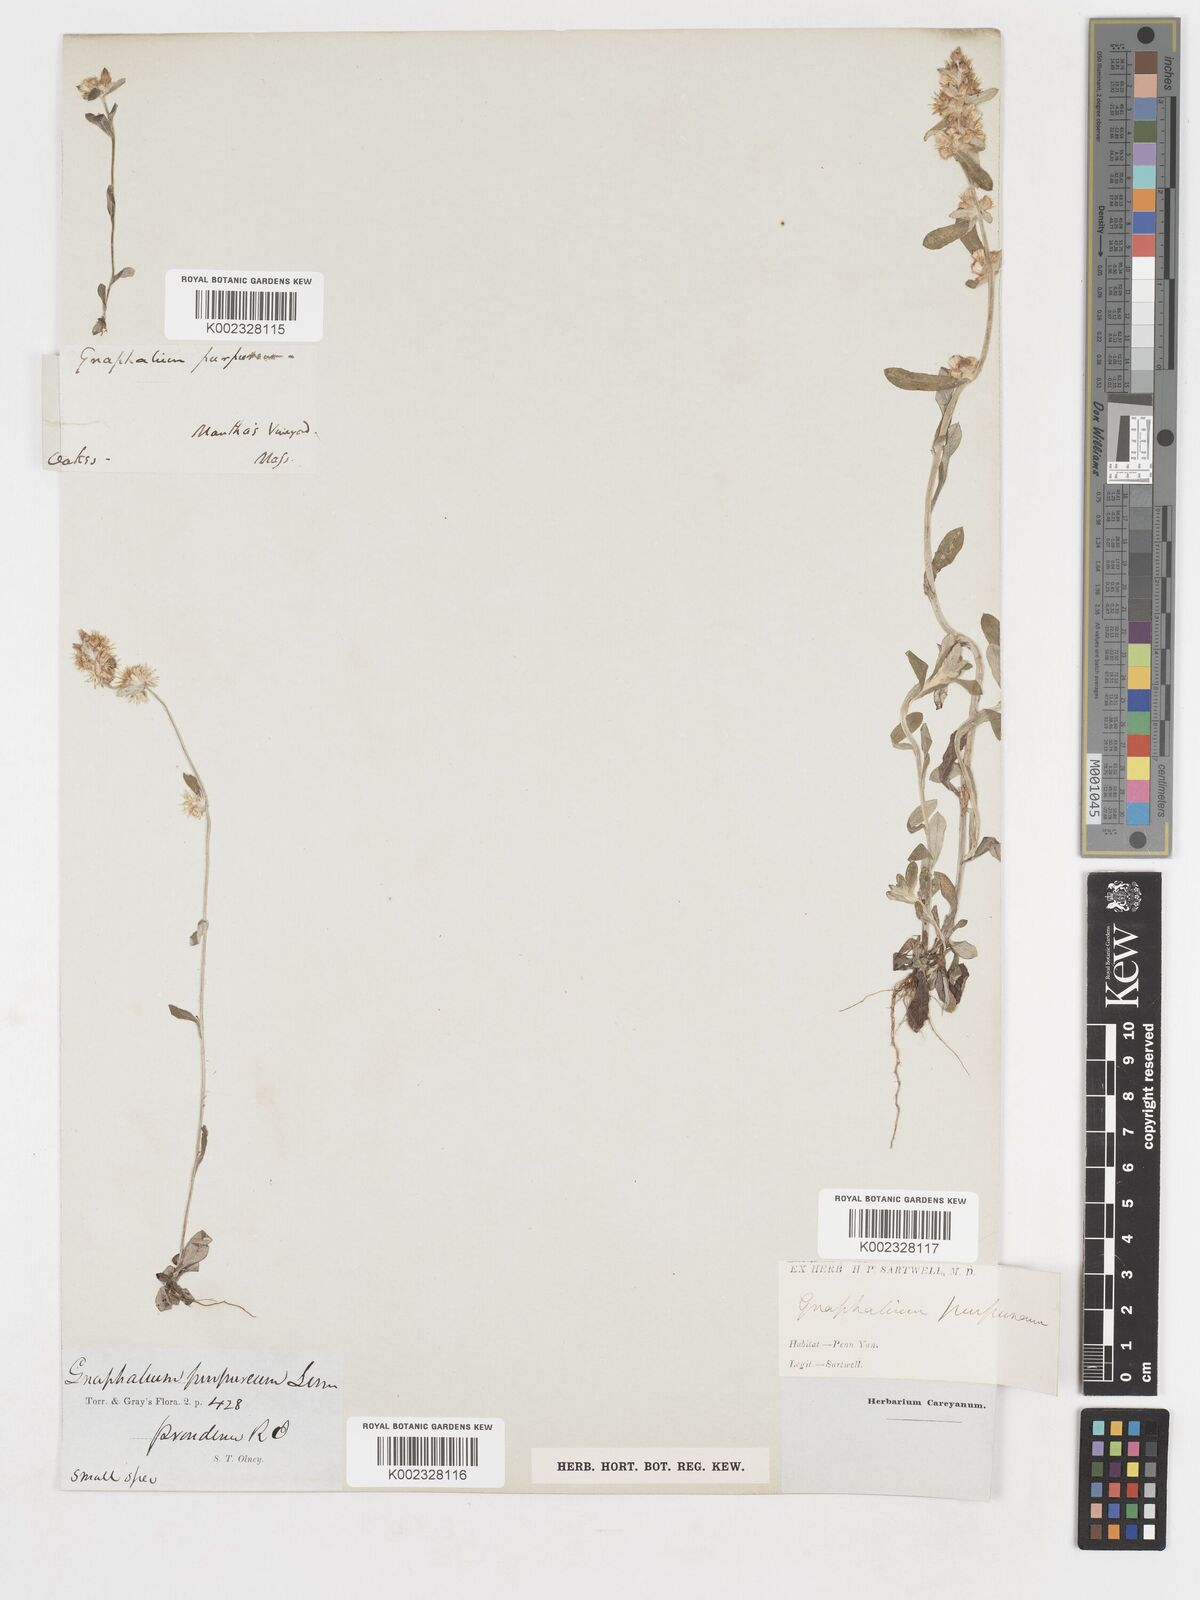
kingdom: Plantae
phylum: Tracheophyta
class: Magnoliopsida
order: Asterales
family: Asteraceae
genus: Gamochaeta
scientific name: Gamochaeta pensylvanica
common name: Pennsylvania everlasting
